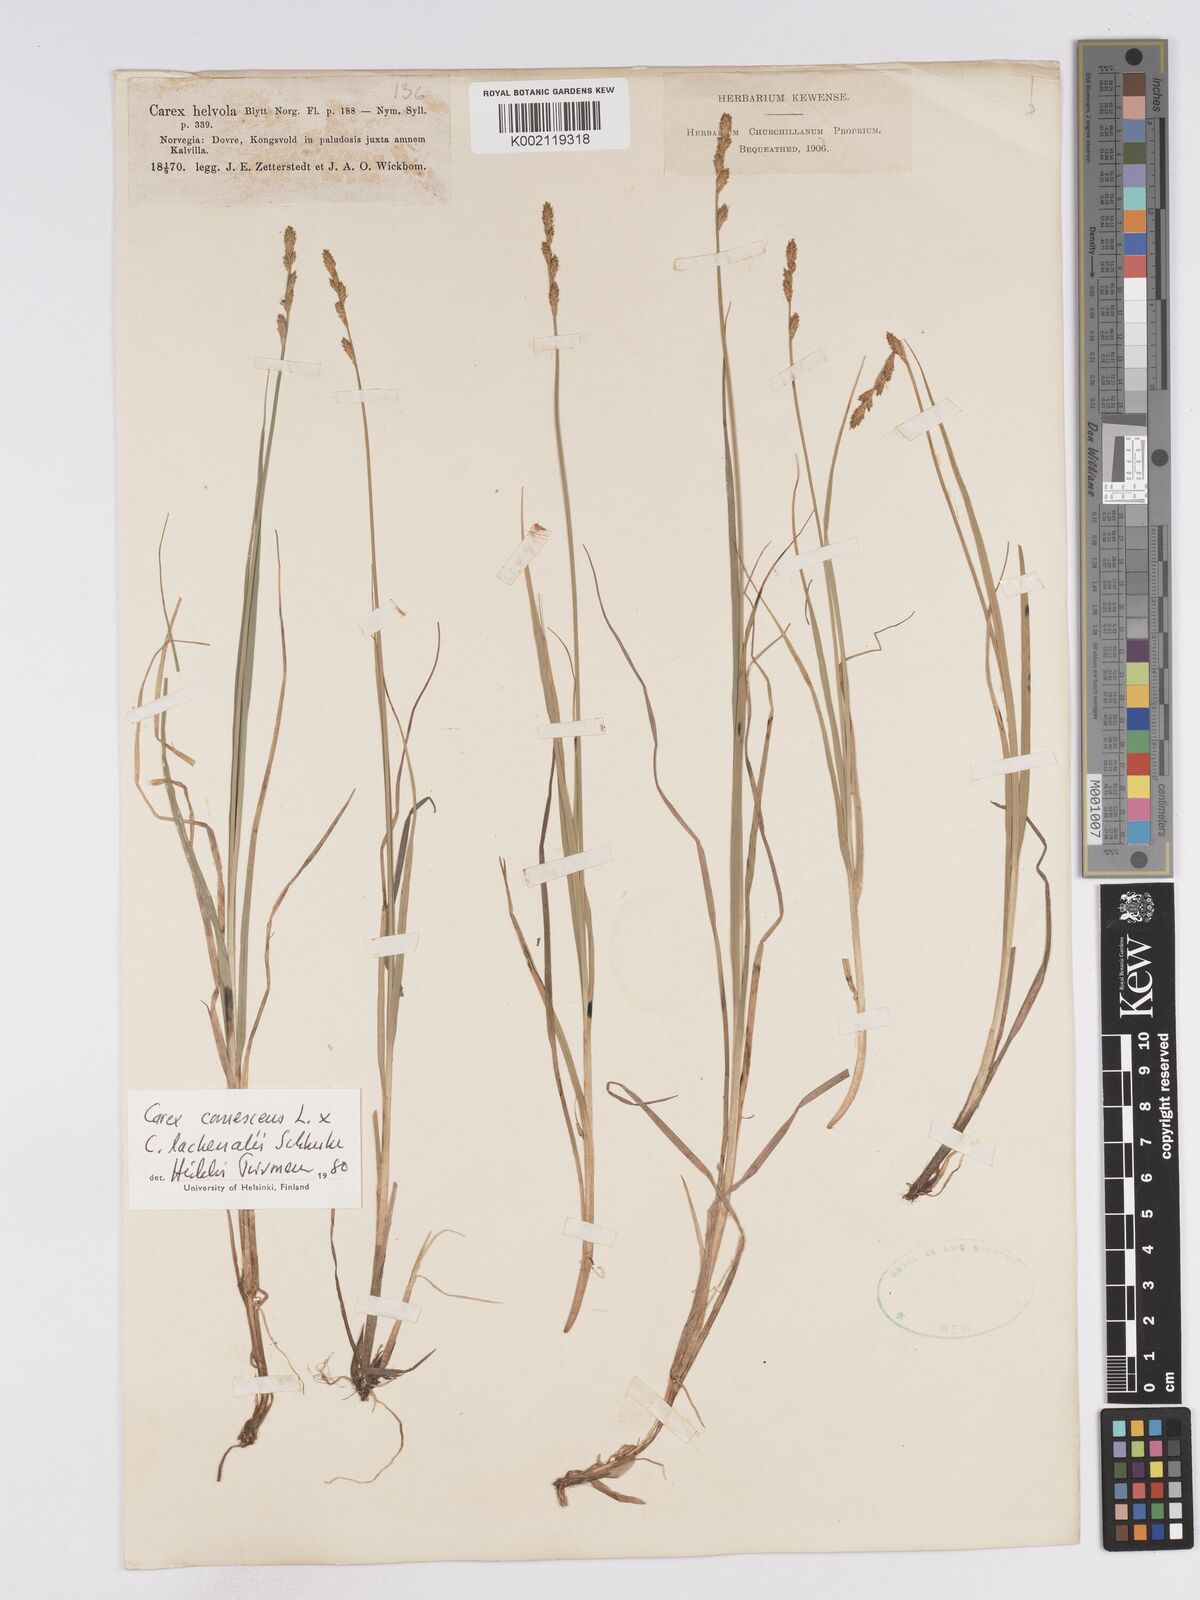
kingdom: Plantae
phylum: Tracheophyta
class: Liliopsida
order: Poales
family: Cyperaceae
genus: Carex
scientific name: Carex
